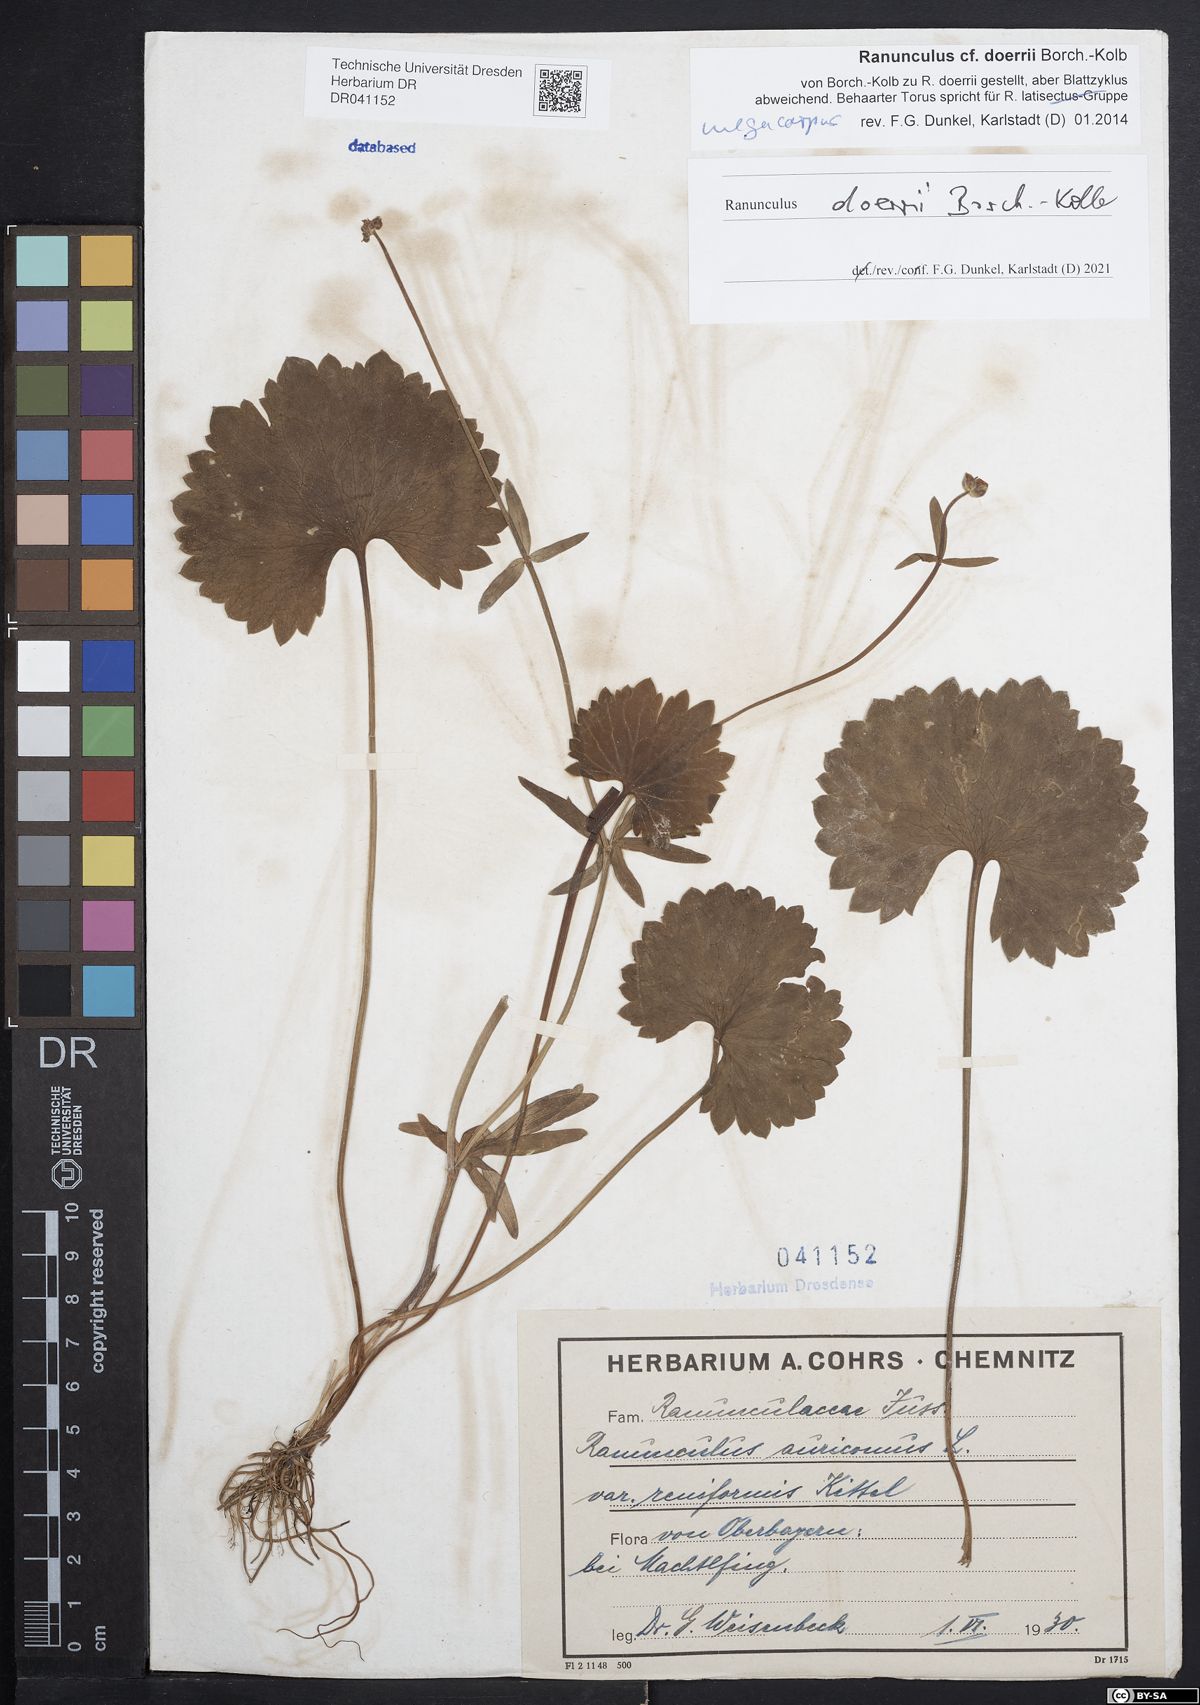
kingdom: Plantae
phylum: Tracheophyta
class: Magnoliopsida
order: Ranunculales
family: Ranunculaceae
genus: Ranunculus
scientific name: Ranunculus doerrii
